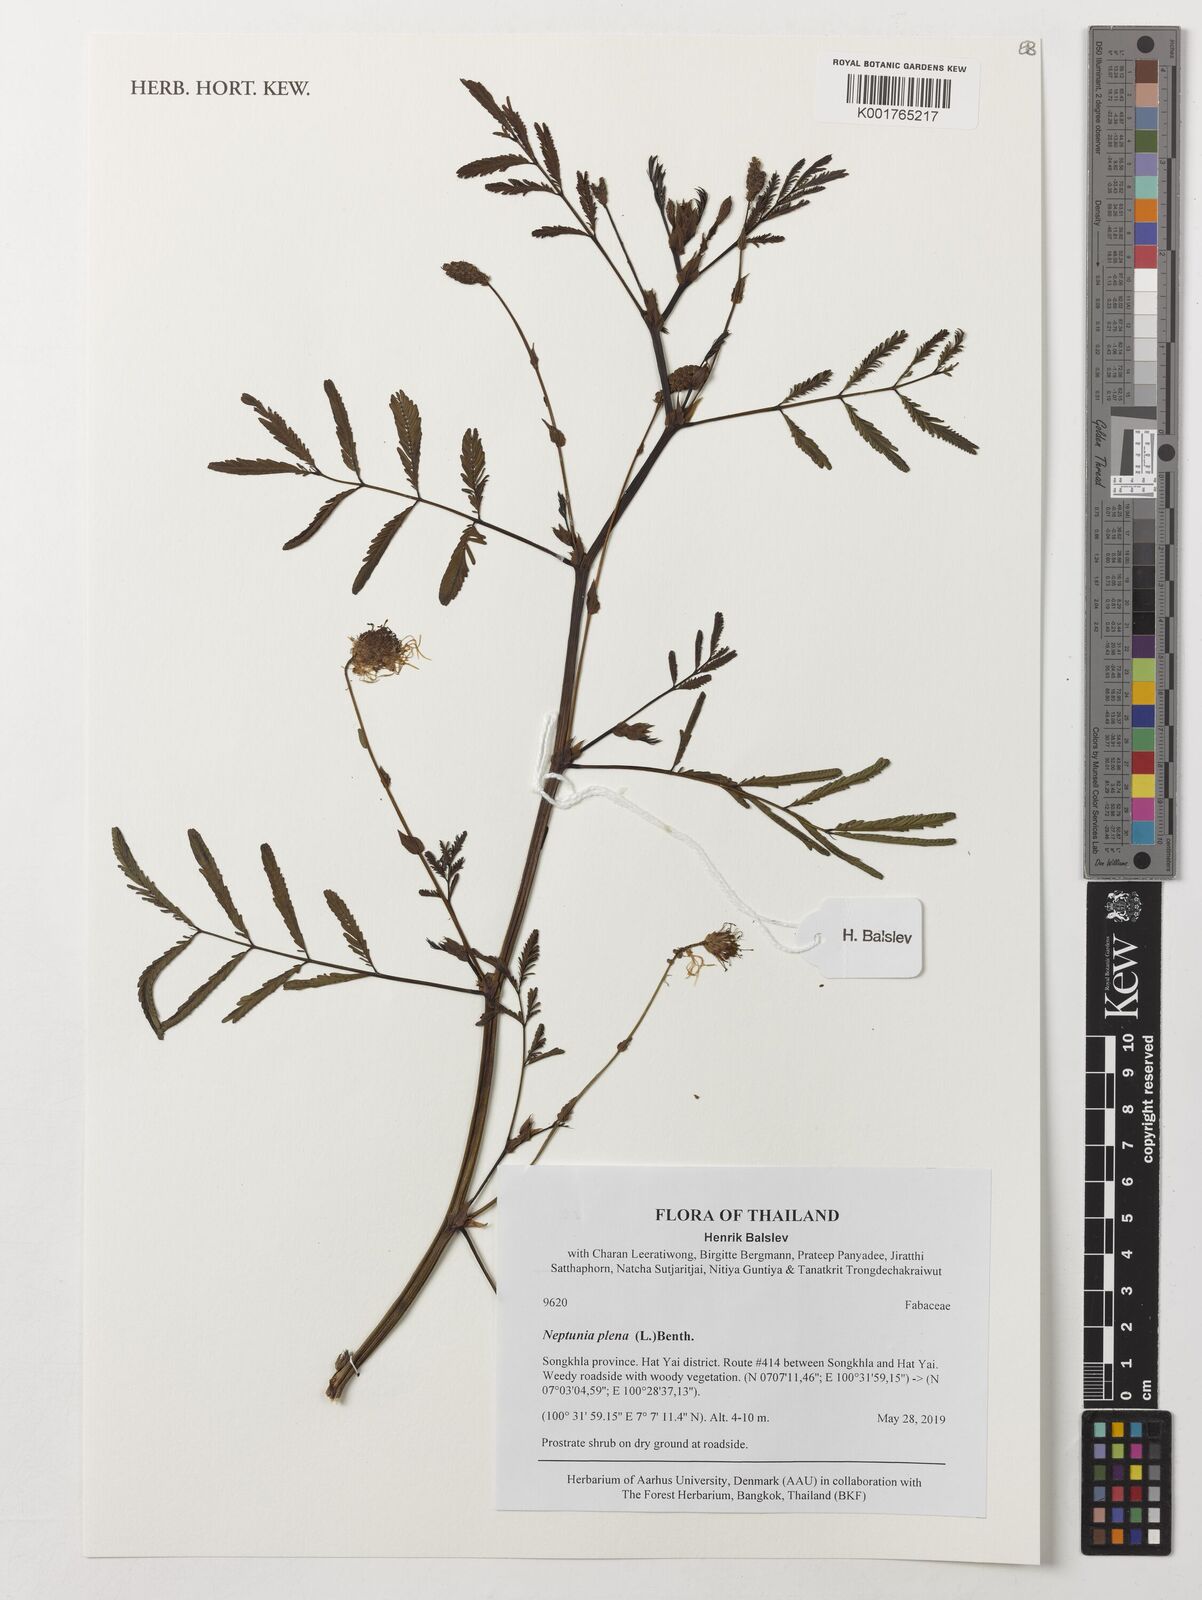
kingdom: Plantae
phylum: Tracheophyta
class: Magnoliopsida
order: Fabales
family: Fabaceae
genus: Neptunia
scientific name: Neptunia plena
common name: Dead and awake
